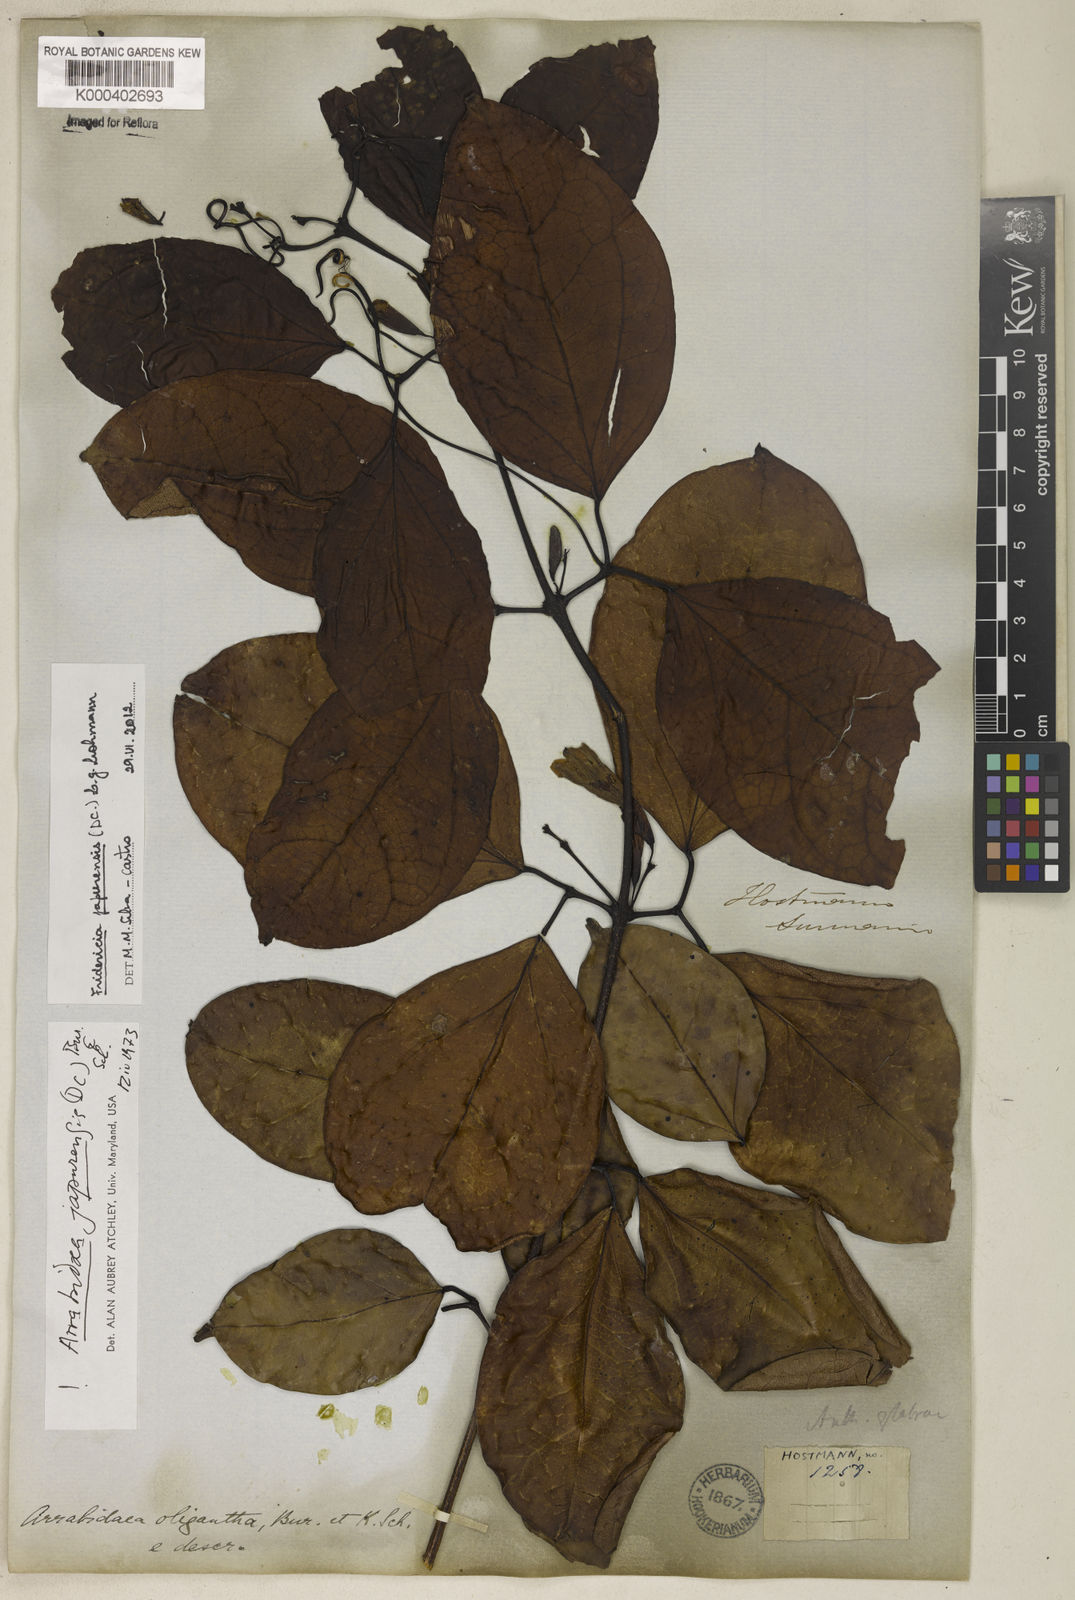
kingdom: Plantae
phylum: Tracheophyta
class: Magnoliopsida
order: Lamiales
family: Bignoniaceae
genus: Fridericia
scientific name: Fridericia japurensis
